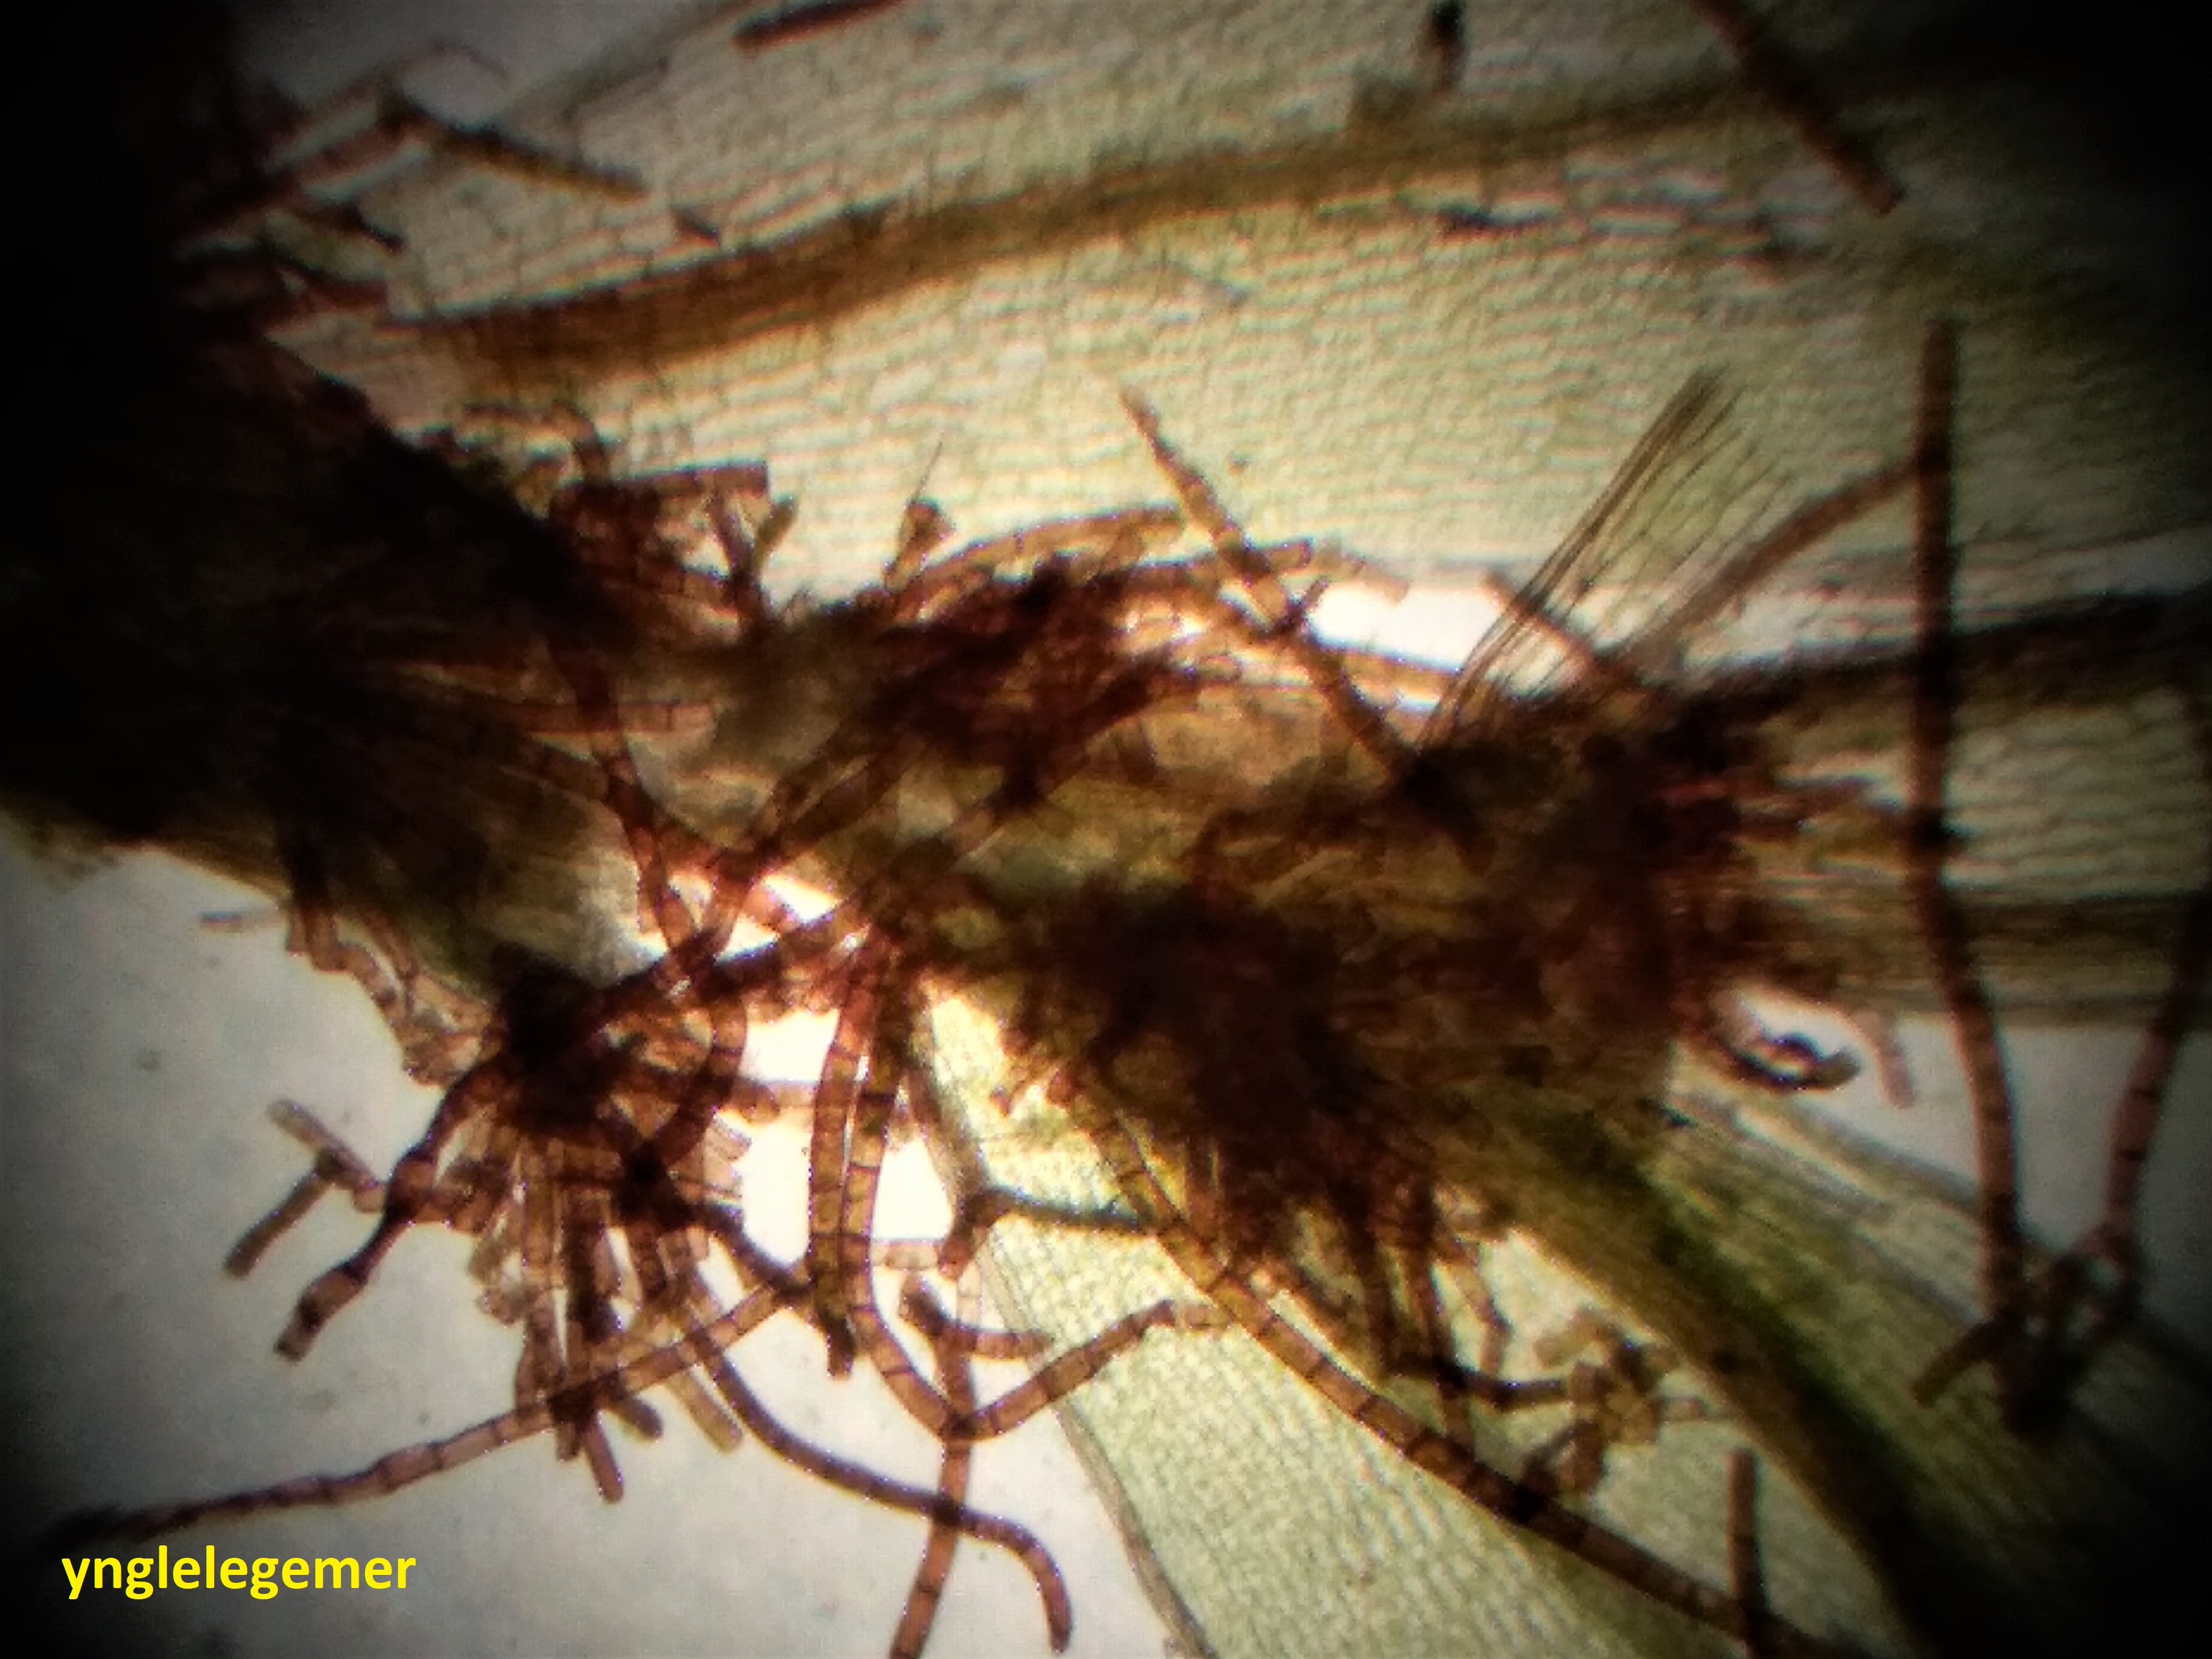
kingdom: Plantae
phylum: Bryophyta
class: Bryopsida
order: Bryales
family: Bryaceae
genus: Rosulabryum
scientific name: Rosulabryum moravicum
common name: Bark-bryum
